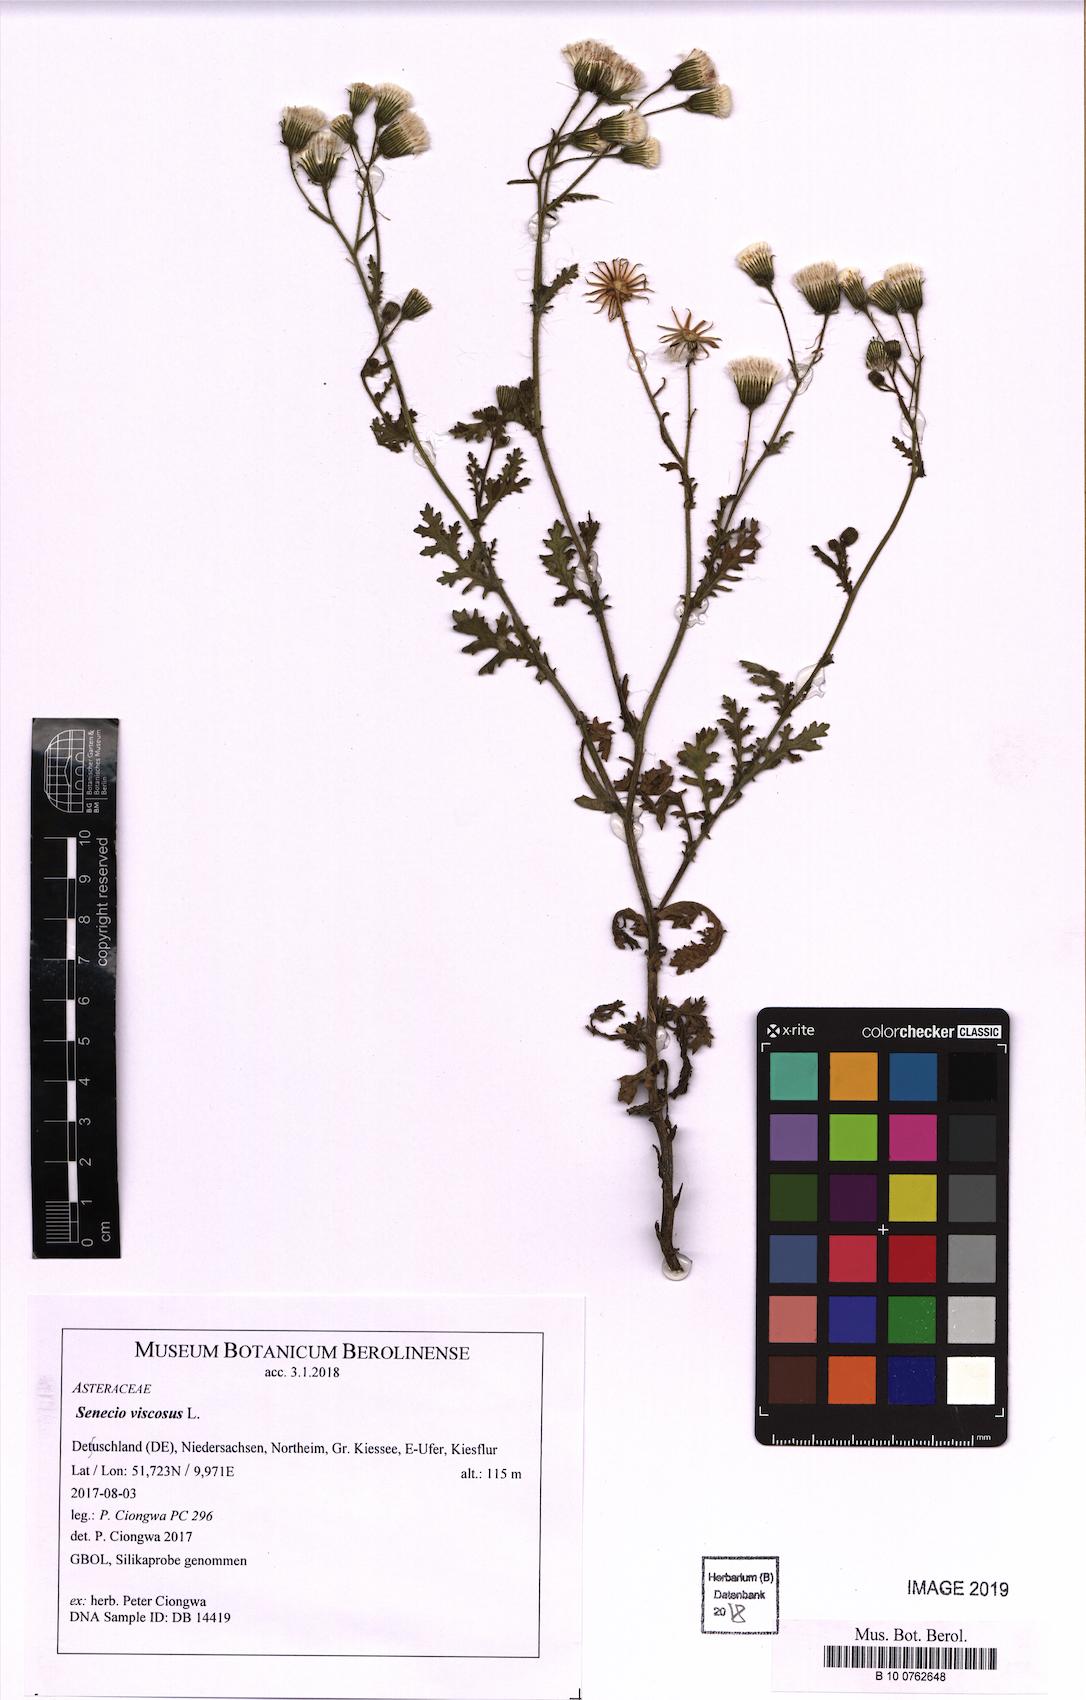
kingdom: Plantae
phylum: Tracheophyta
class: Magnoliopsida
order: Asterales
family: Asteraceae
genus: Senecio
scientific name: Senecio viscosus
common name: Sticky groundsel
